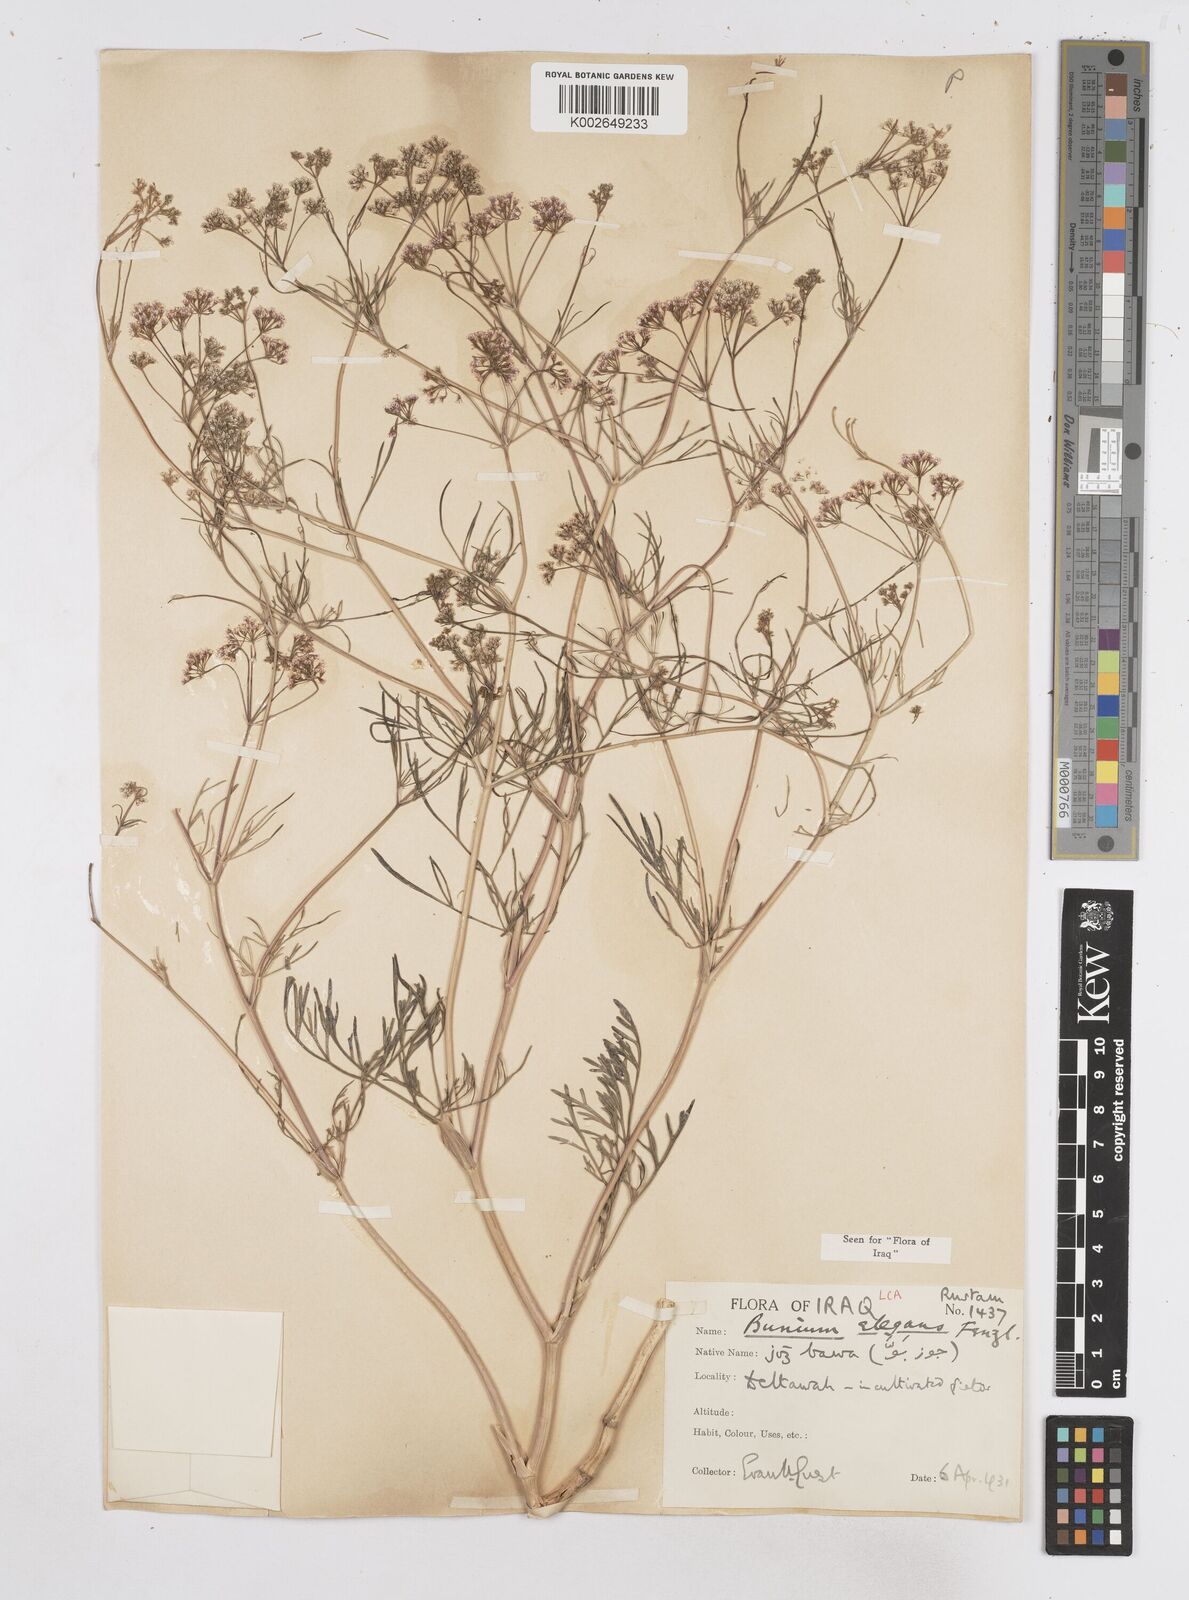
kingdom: Plantae
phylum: Tracheophyta
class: Magnoliopsida
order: Apiales
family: Apiaceae
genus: Bunium
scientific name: Bunium paucifolium
